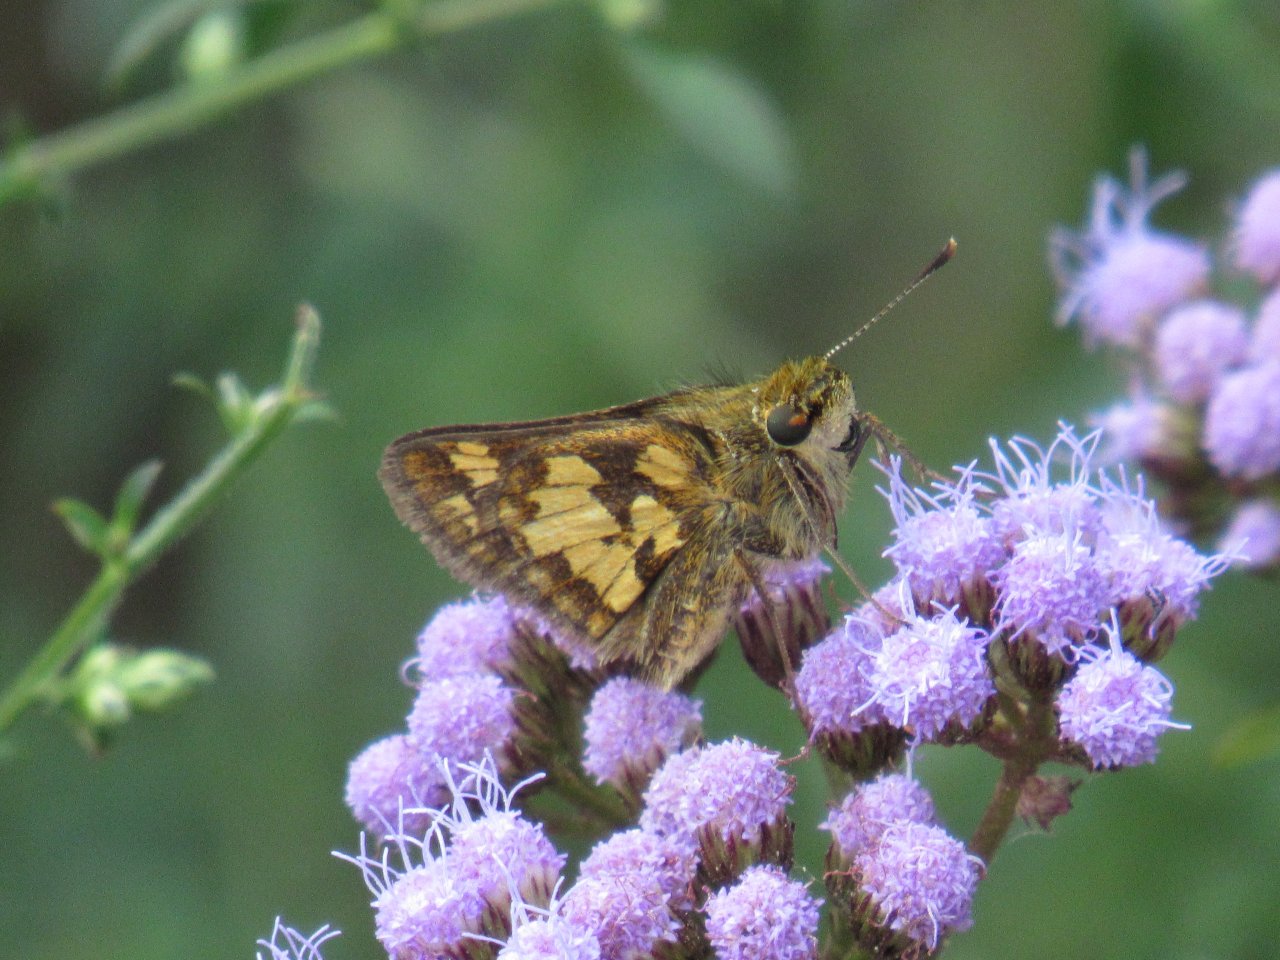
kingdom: Animalia
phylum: Arthropoda
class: Insecta
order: Lepidoptera
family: Hesperiidae
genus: Polites
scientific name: Polites coras
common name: Peck's Skipper
